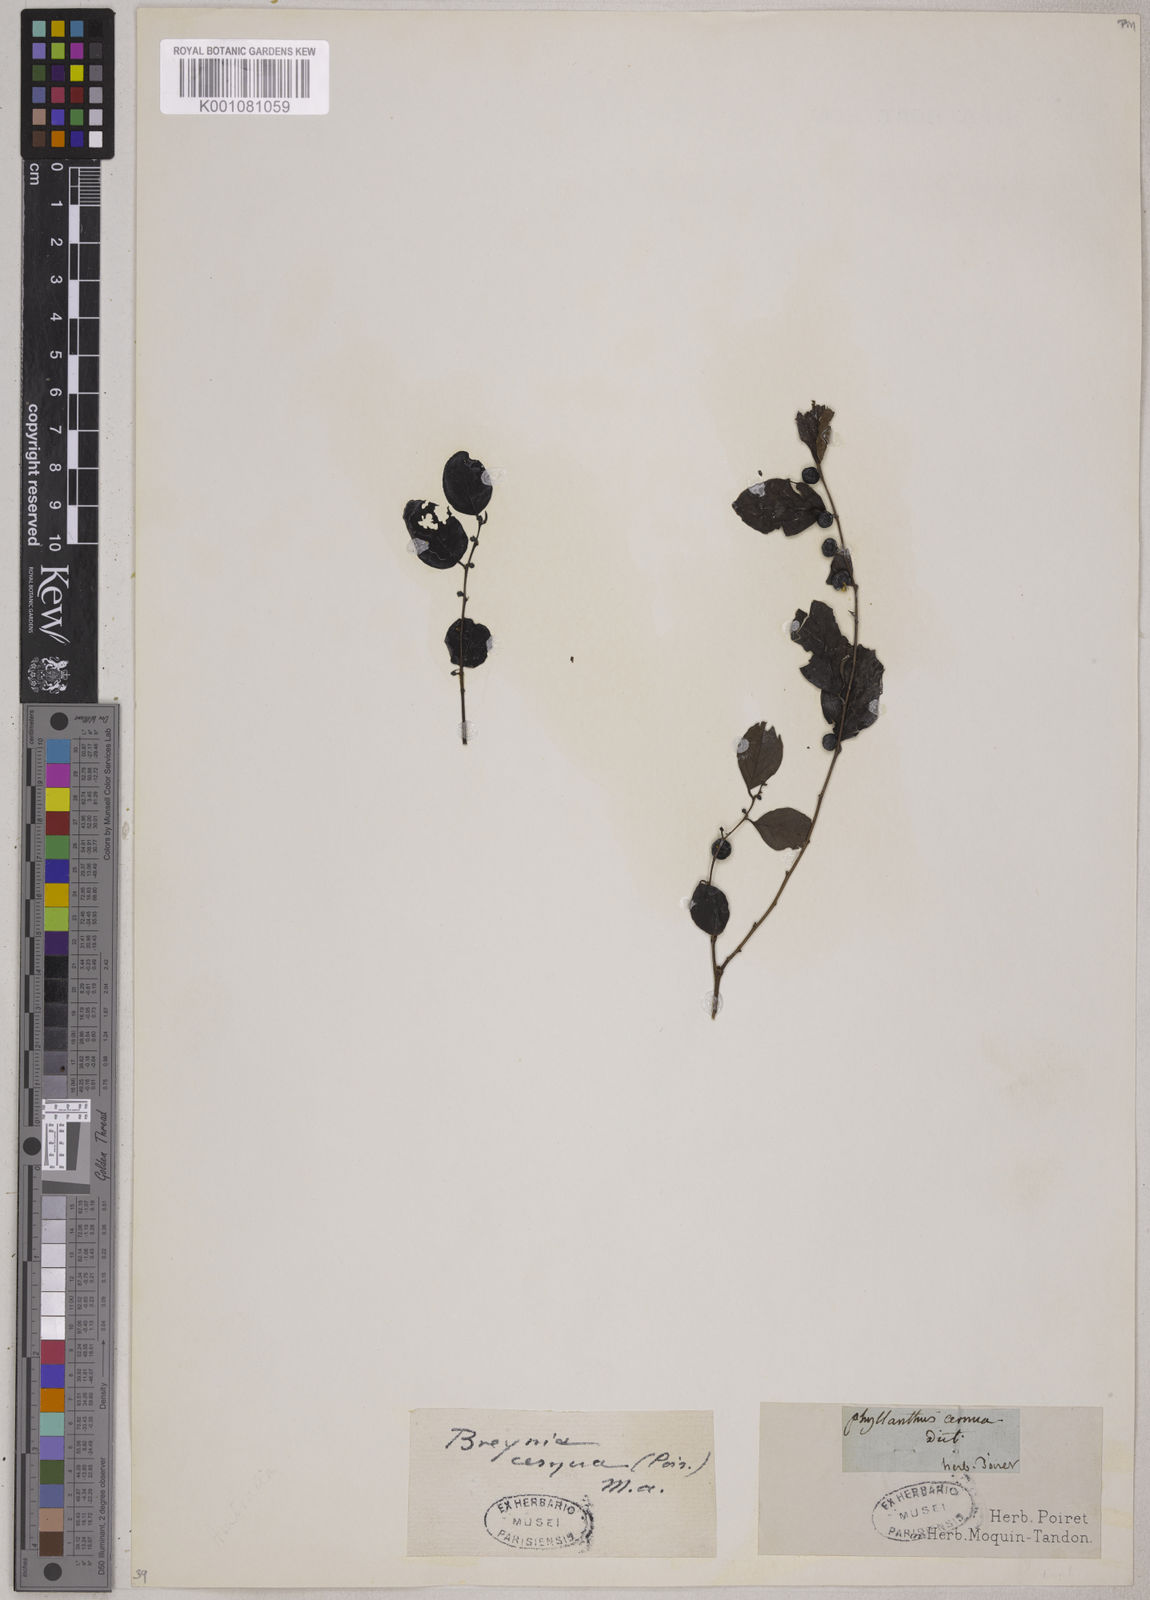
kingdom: Plantae
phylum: Tracheophyta
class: Magnoliopsida
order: Malpighiales
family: Phyllanthaceae
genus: Breynia
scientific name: Breynia
